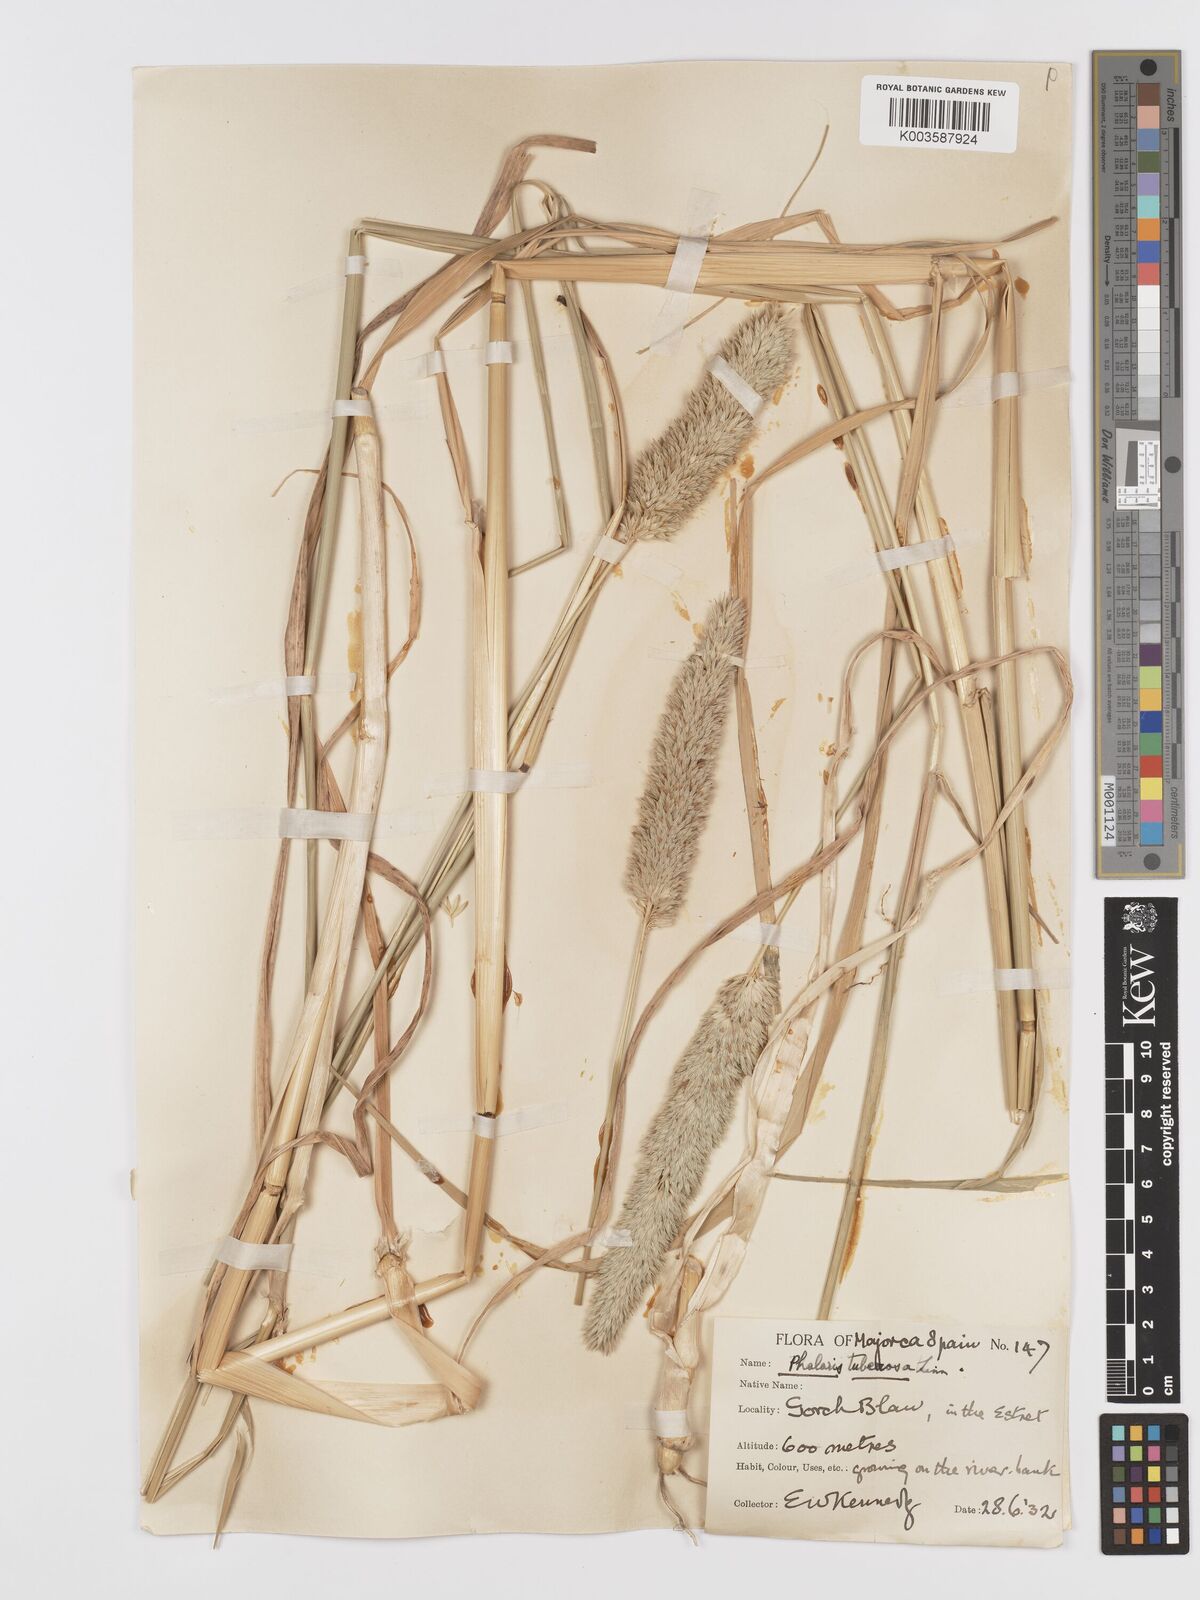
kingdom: Plantae
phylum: Tracheophyta
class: Liliopsida
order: Poales
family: Poaceae
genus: Phalaris
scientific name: Phalaris
